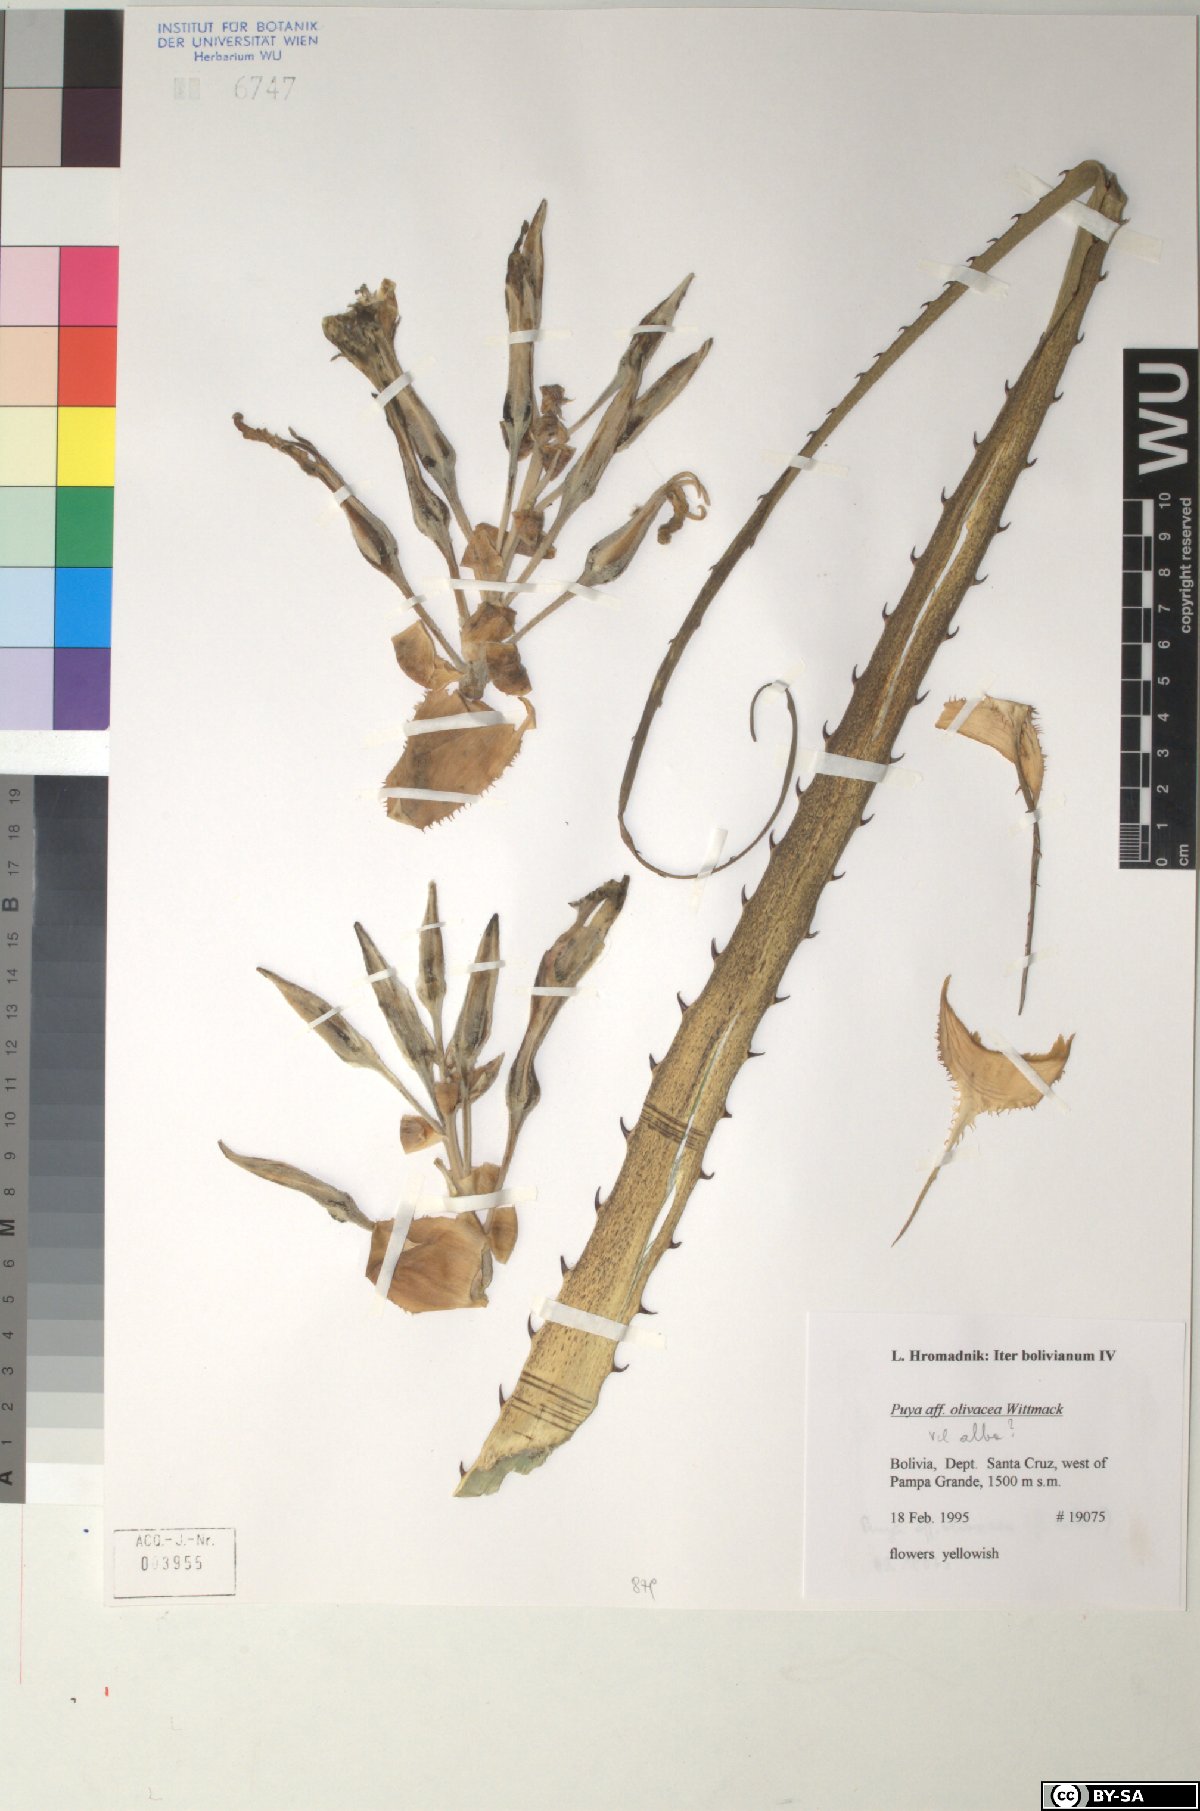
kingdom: Plantae
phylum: Tracheophyta
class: Liliopsida
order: Poales
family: Bromeliaceae
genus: Puya
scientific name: Puya olivacea
